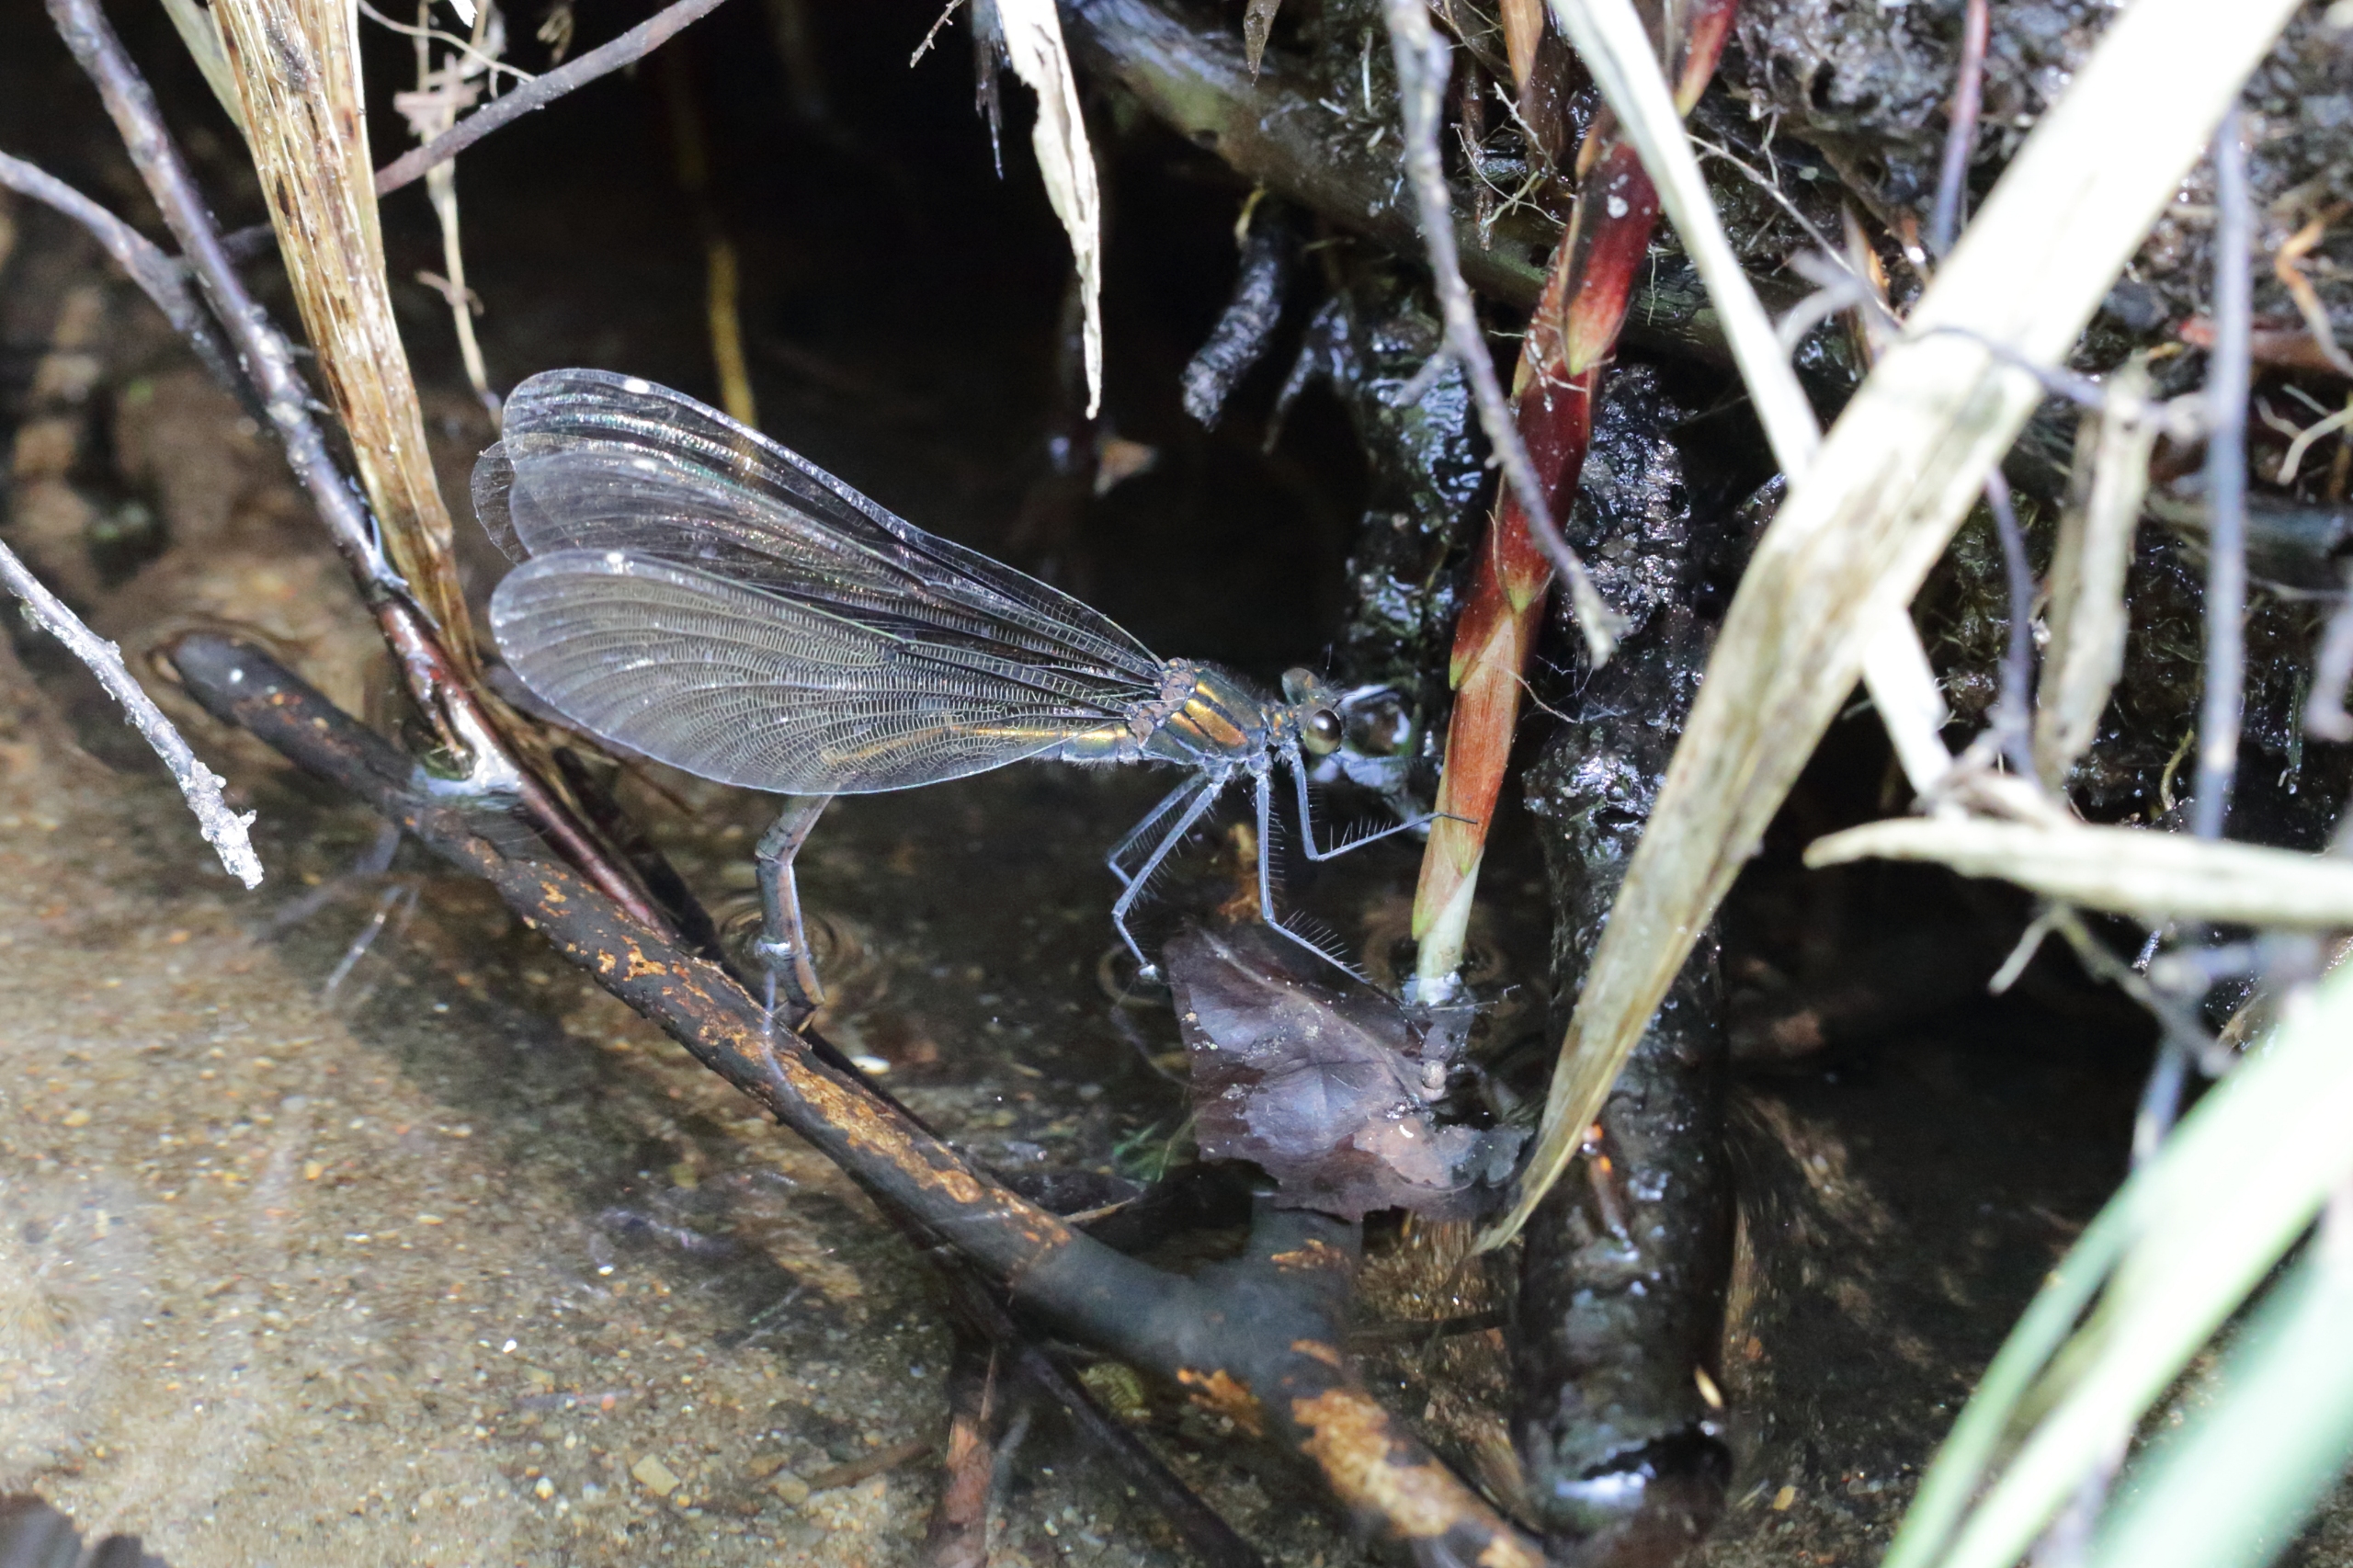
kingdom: Animalia
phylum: Arthropoda
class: Insecta
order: Odonata
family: Calopterygidae
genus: Calopteryx
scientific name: Calopteryx virgo
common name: Blåvinget pragtvandnymfe
